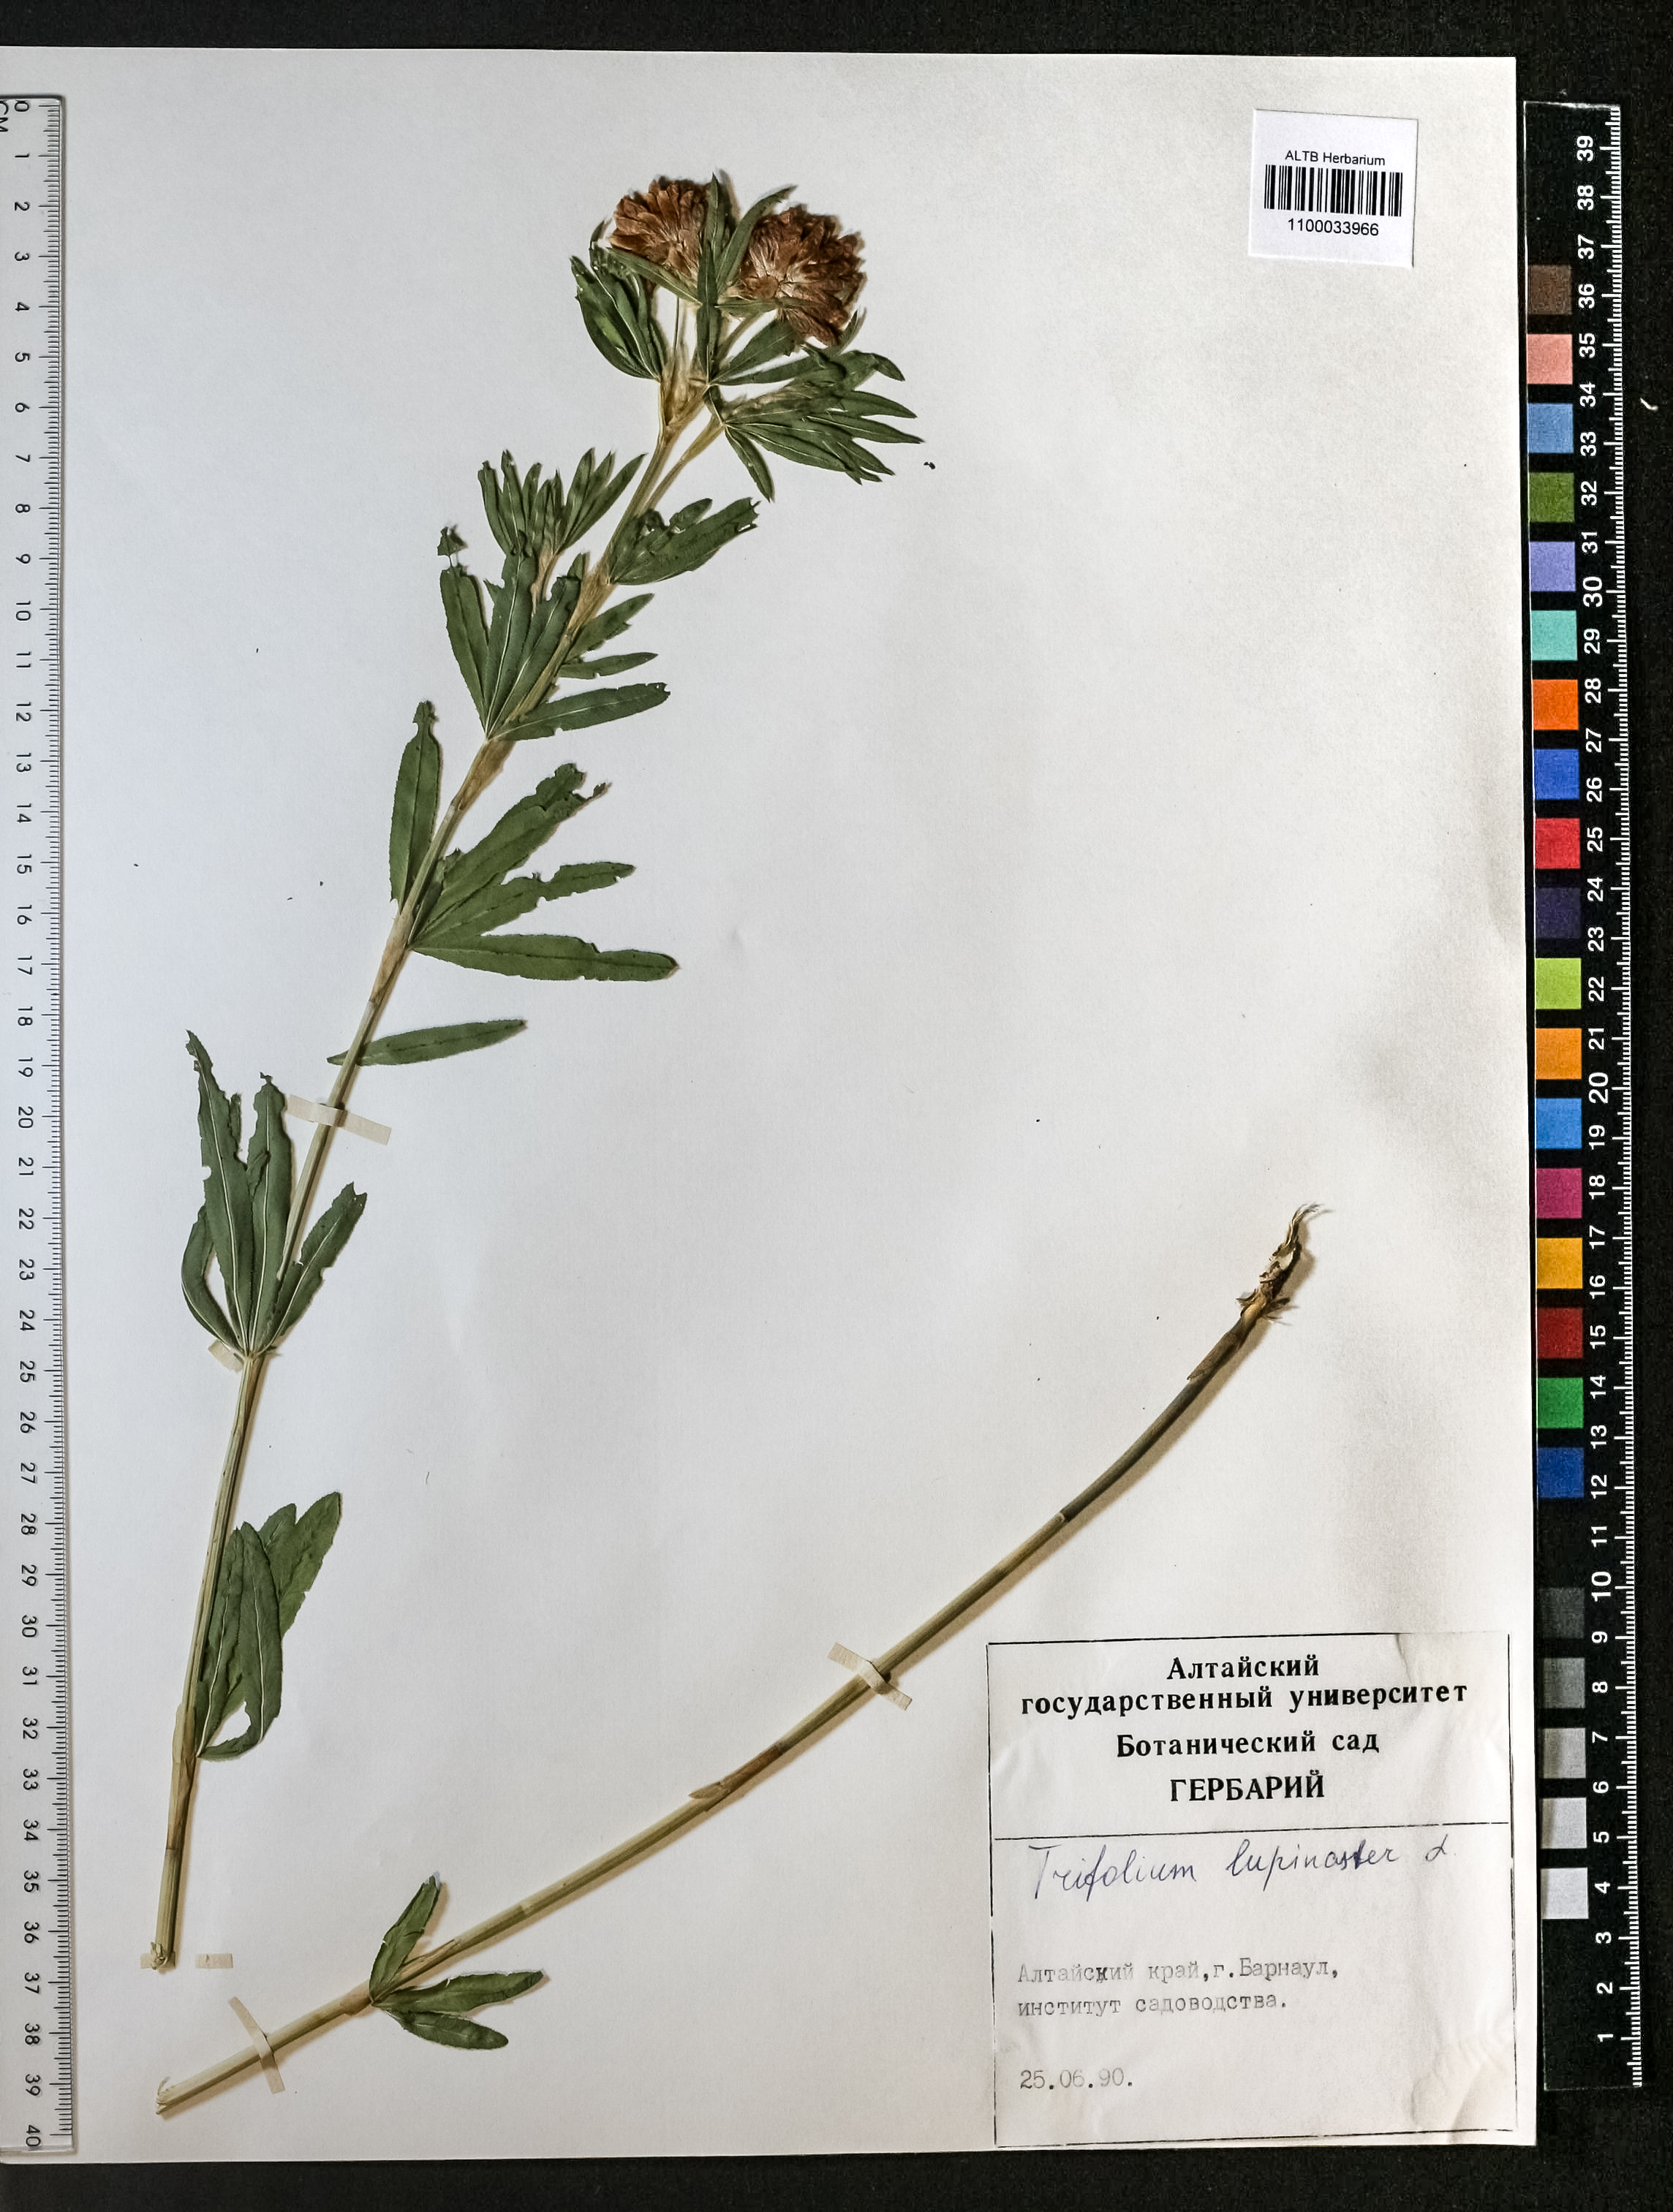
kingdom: Plantae
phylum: Tracheophyta
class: Magnoliopsida
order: Fabales
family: Fabaceae
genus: Trifolium
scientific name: Trifolium lupinaster
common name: Lupine clover
